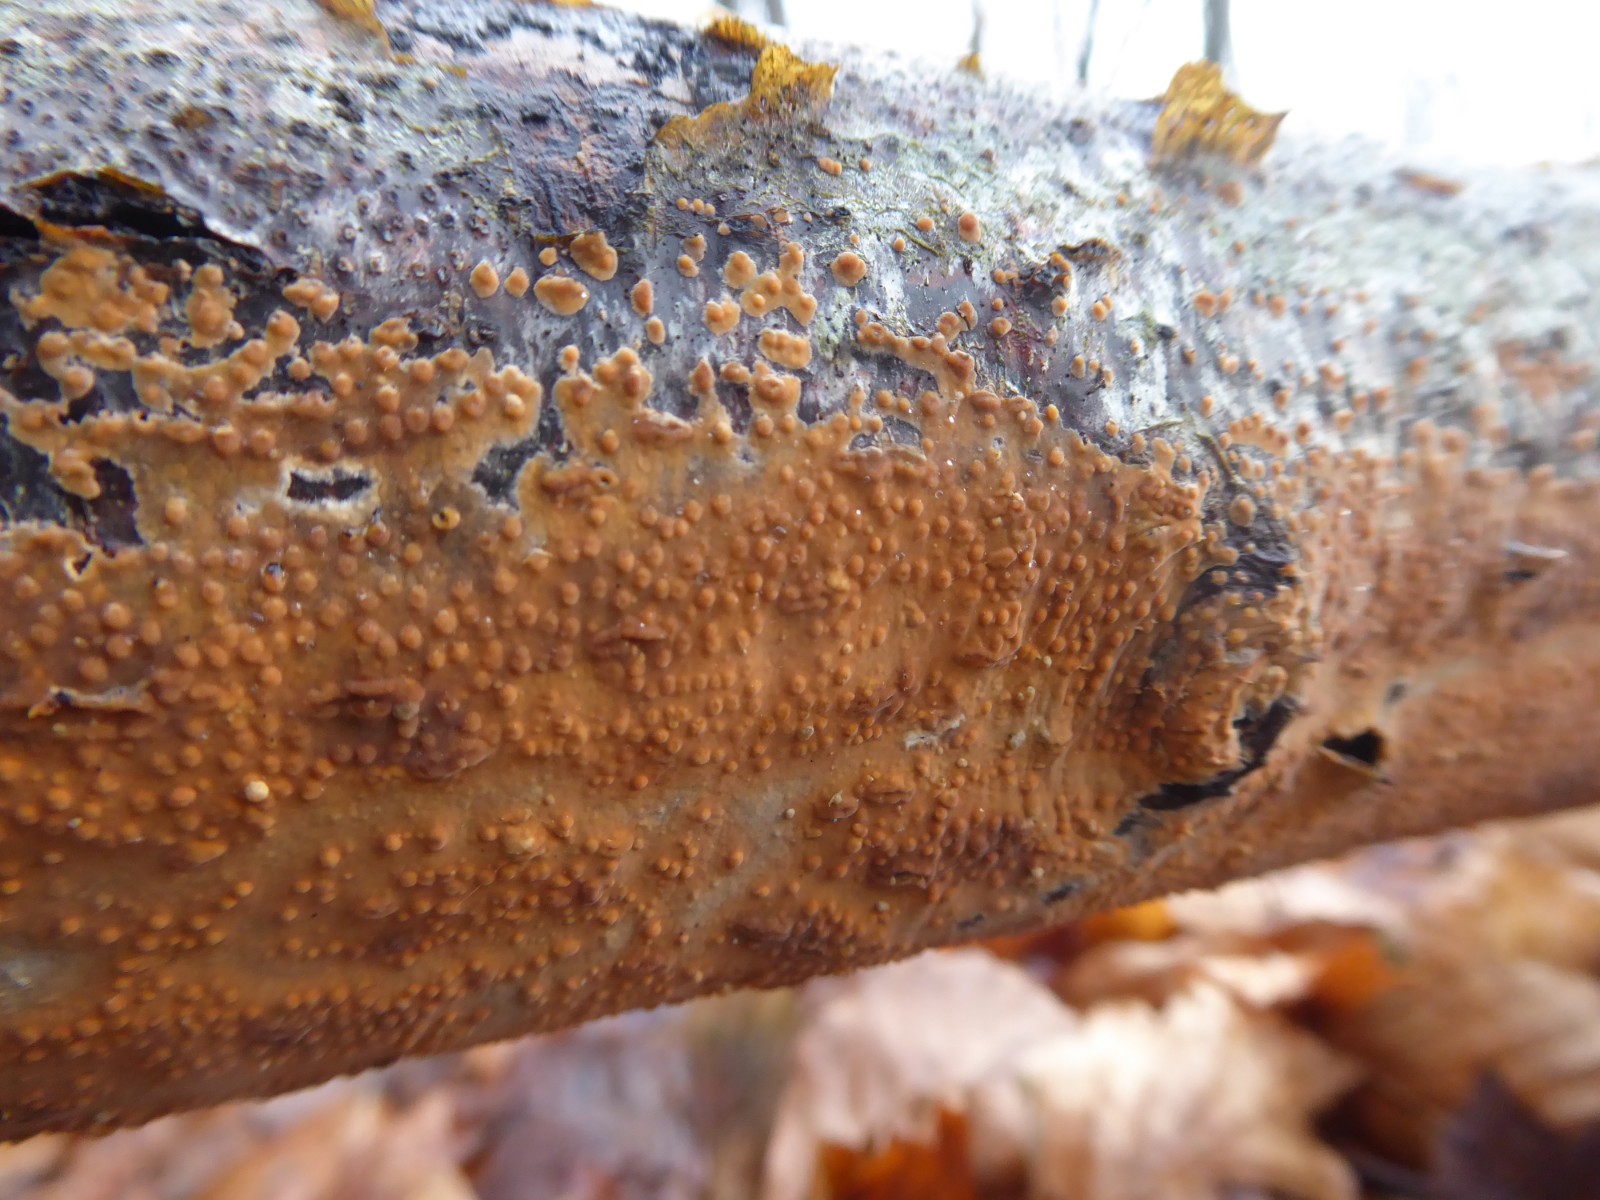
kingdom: Fungi
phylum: Basidiomycota
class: Agaricomycetes
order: Russulales
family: Peniophoraceae
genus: Peniophora
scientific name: Peniophora incarnata
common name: laksefarvet voksskind
